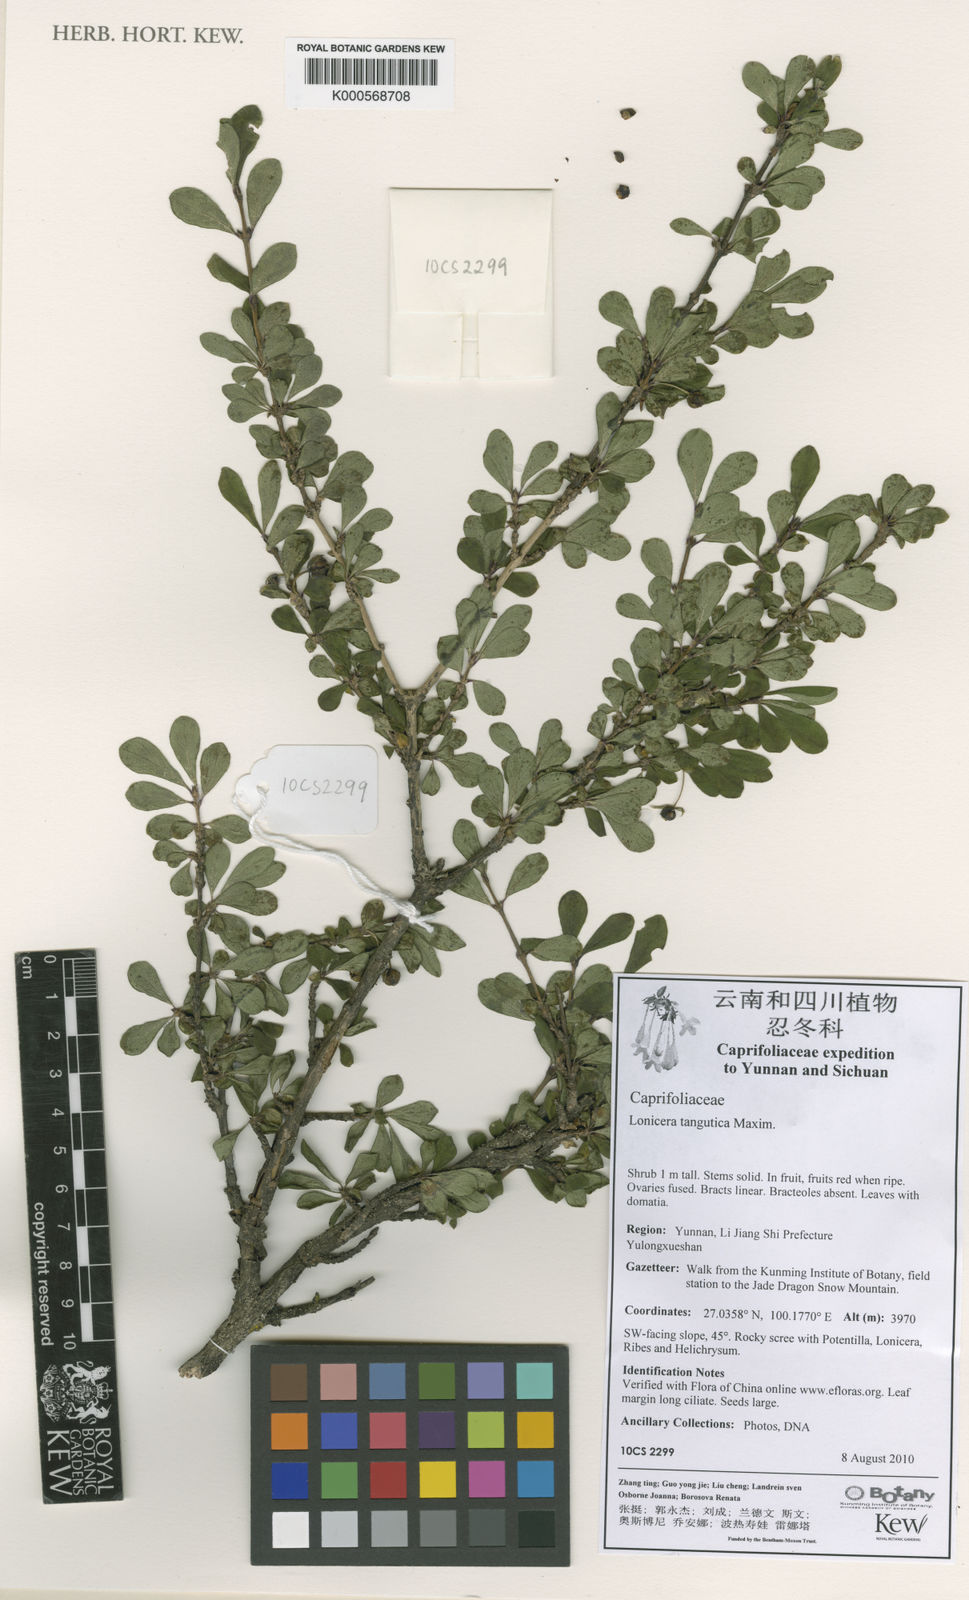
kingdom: Plantae
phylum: Tracheophyta
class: Magnoliopsida
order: Dipsacales
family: Caprifoliaceae
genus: Lonicera
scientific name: Lonicera tangutica
